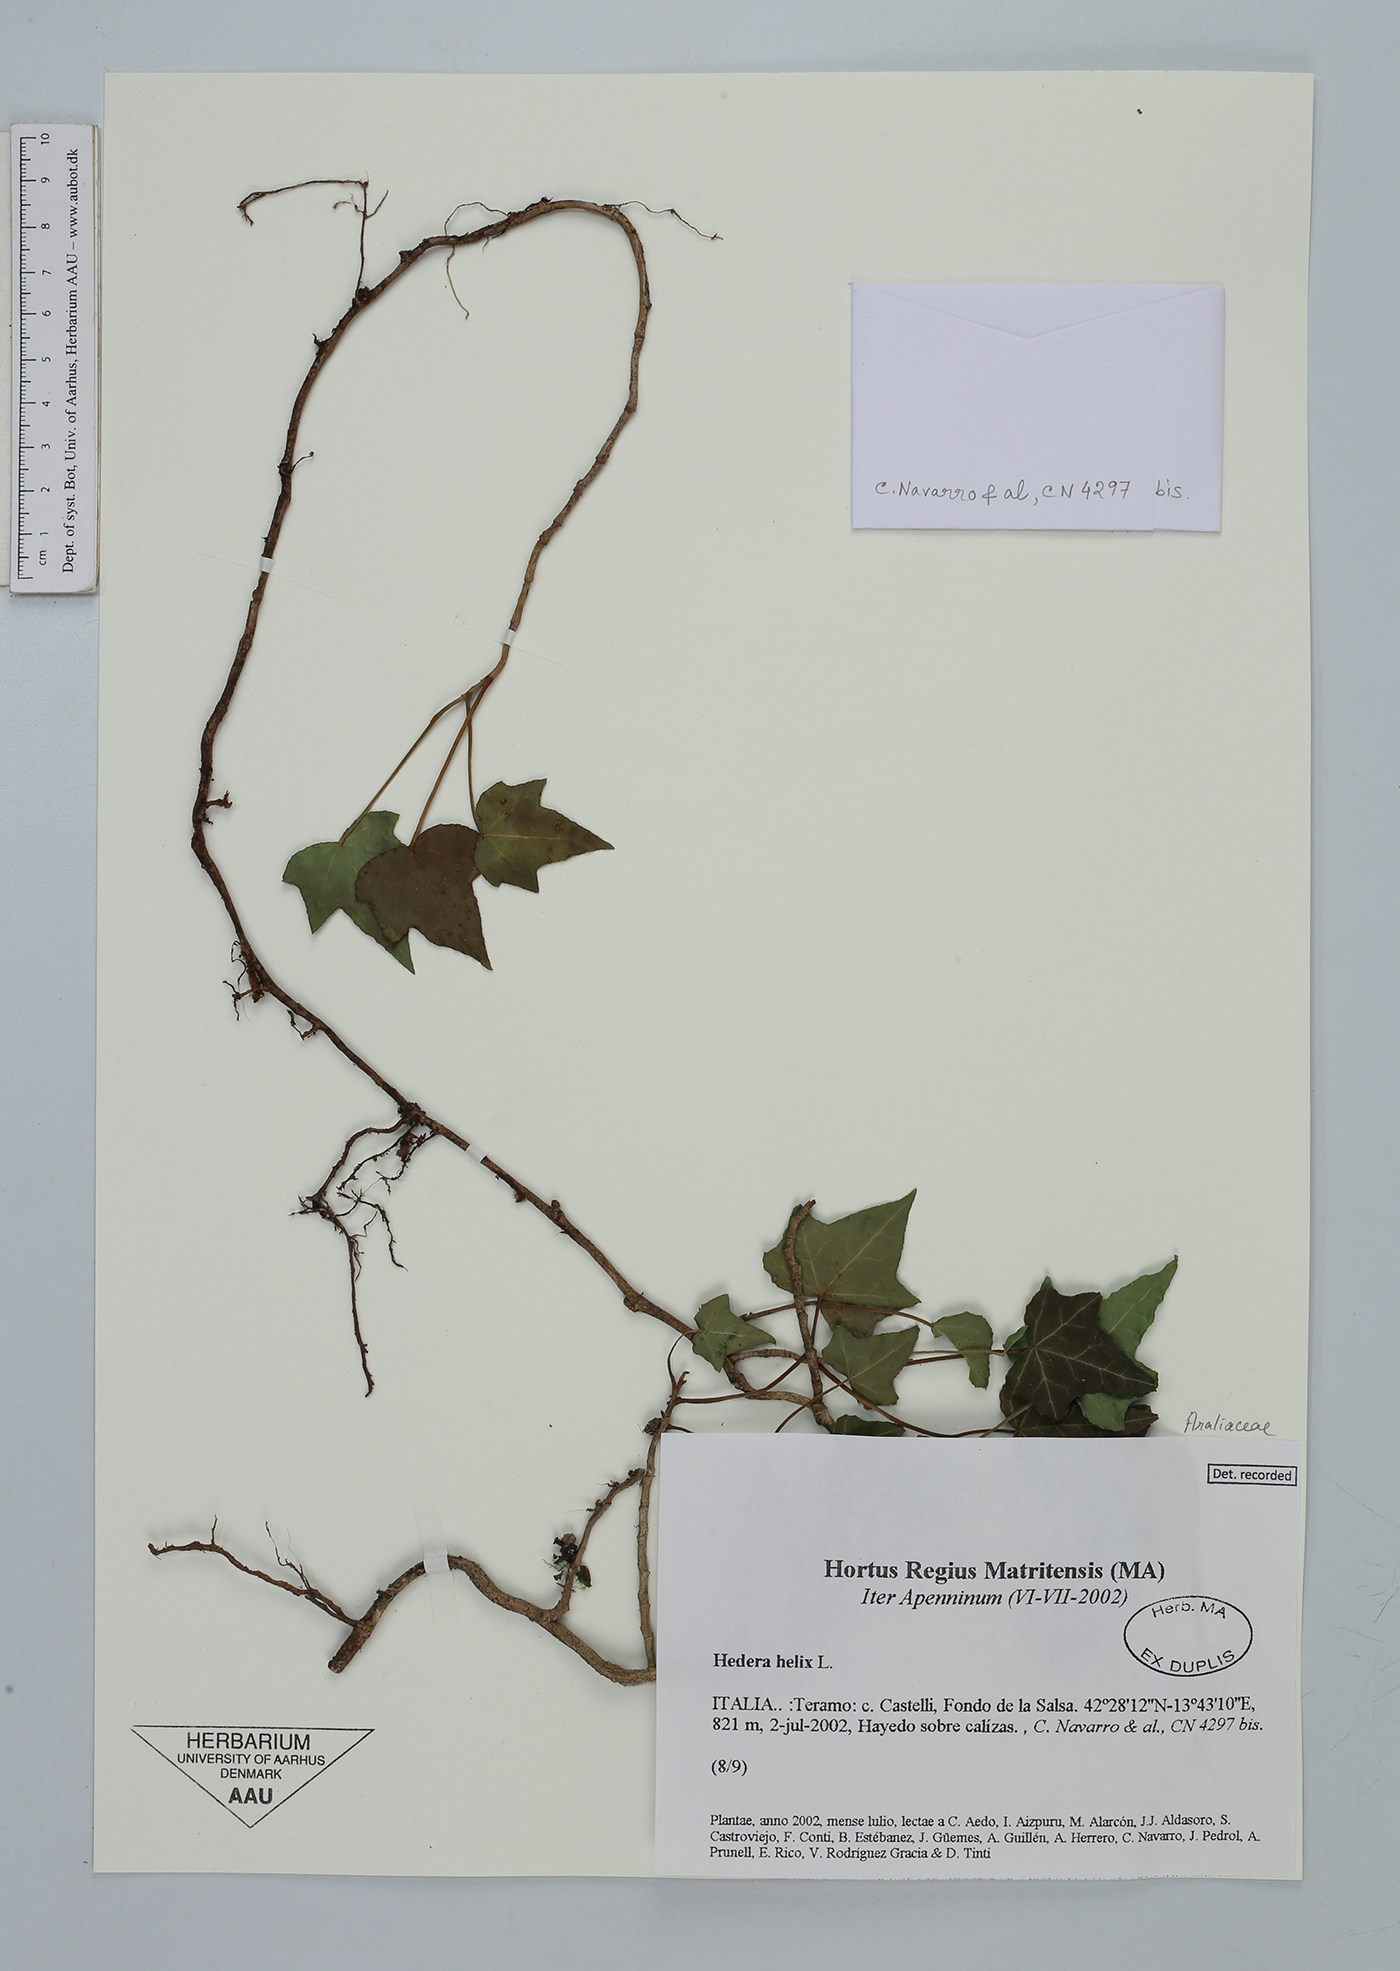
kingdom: Plantae
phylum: Tracheophyta
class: Magnoliopsida
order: Apiales
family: Araliaceae
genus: Hedera
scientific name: Hedera helix
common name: Ivy
